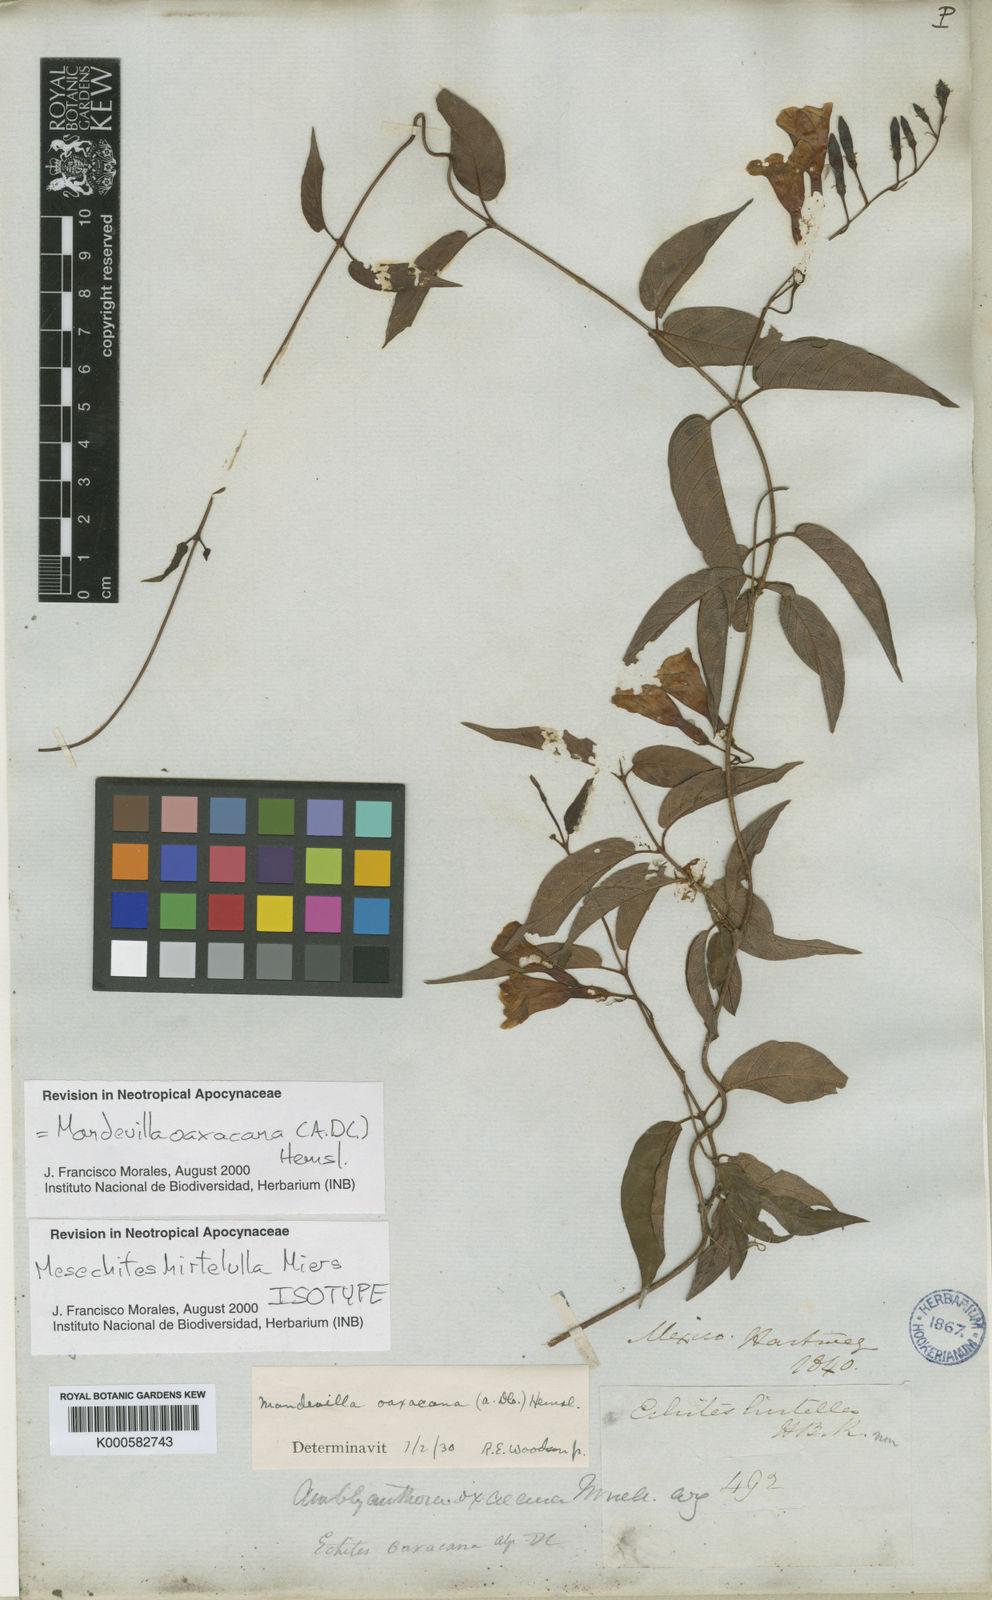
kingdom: Plantae
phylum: Tracheophyta
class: Magnoliopsida
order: Gentianales
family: Apocynaceae
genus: Mandevilla
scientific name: Mandevilla oaxacana
